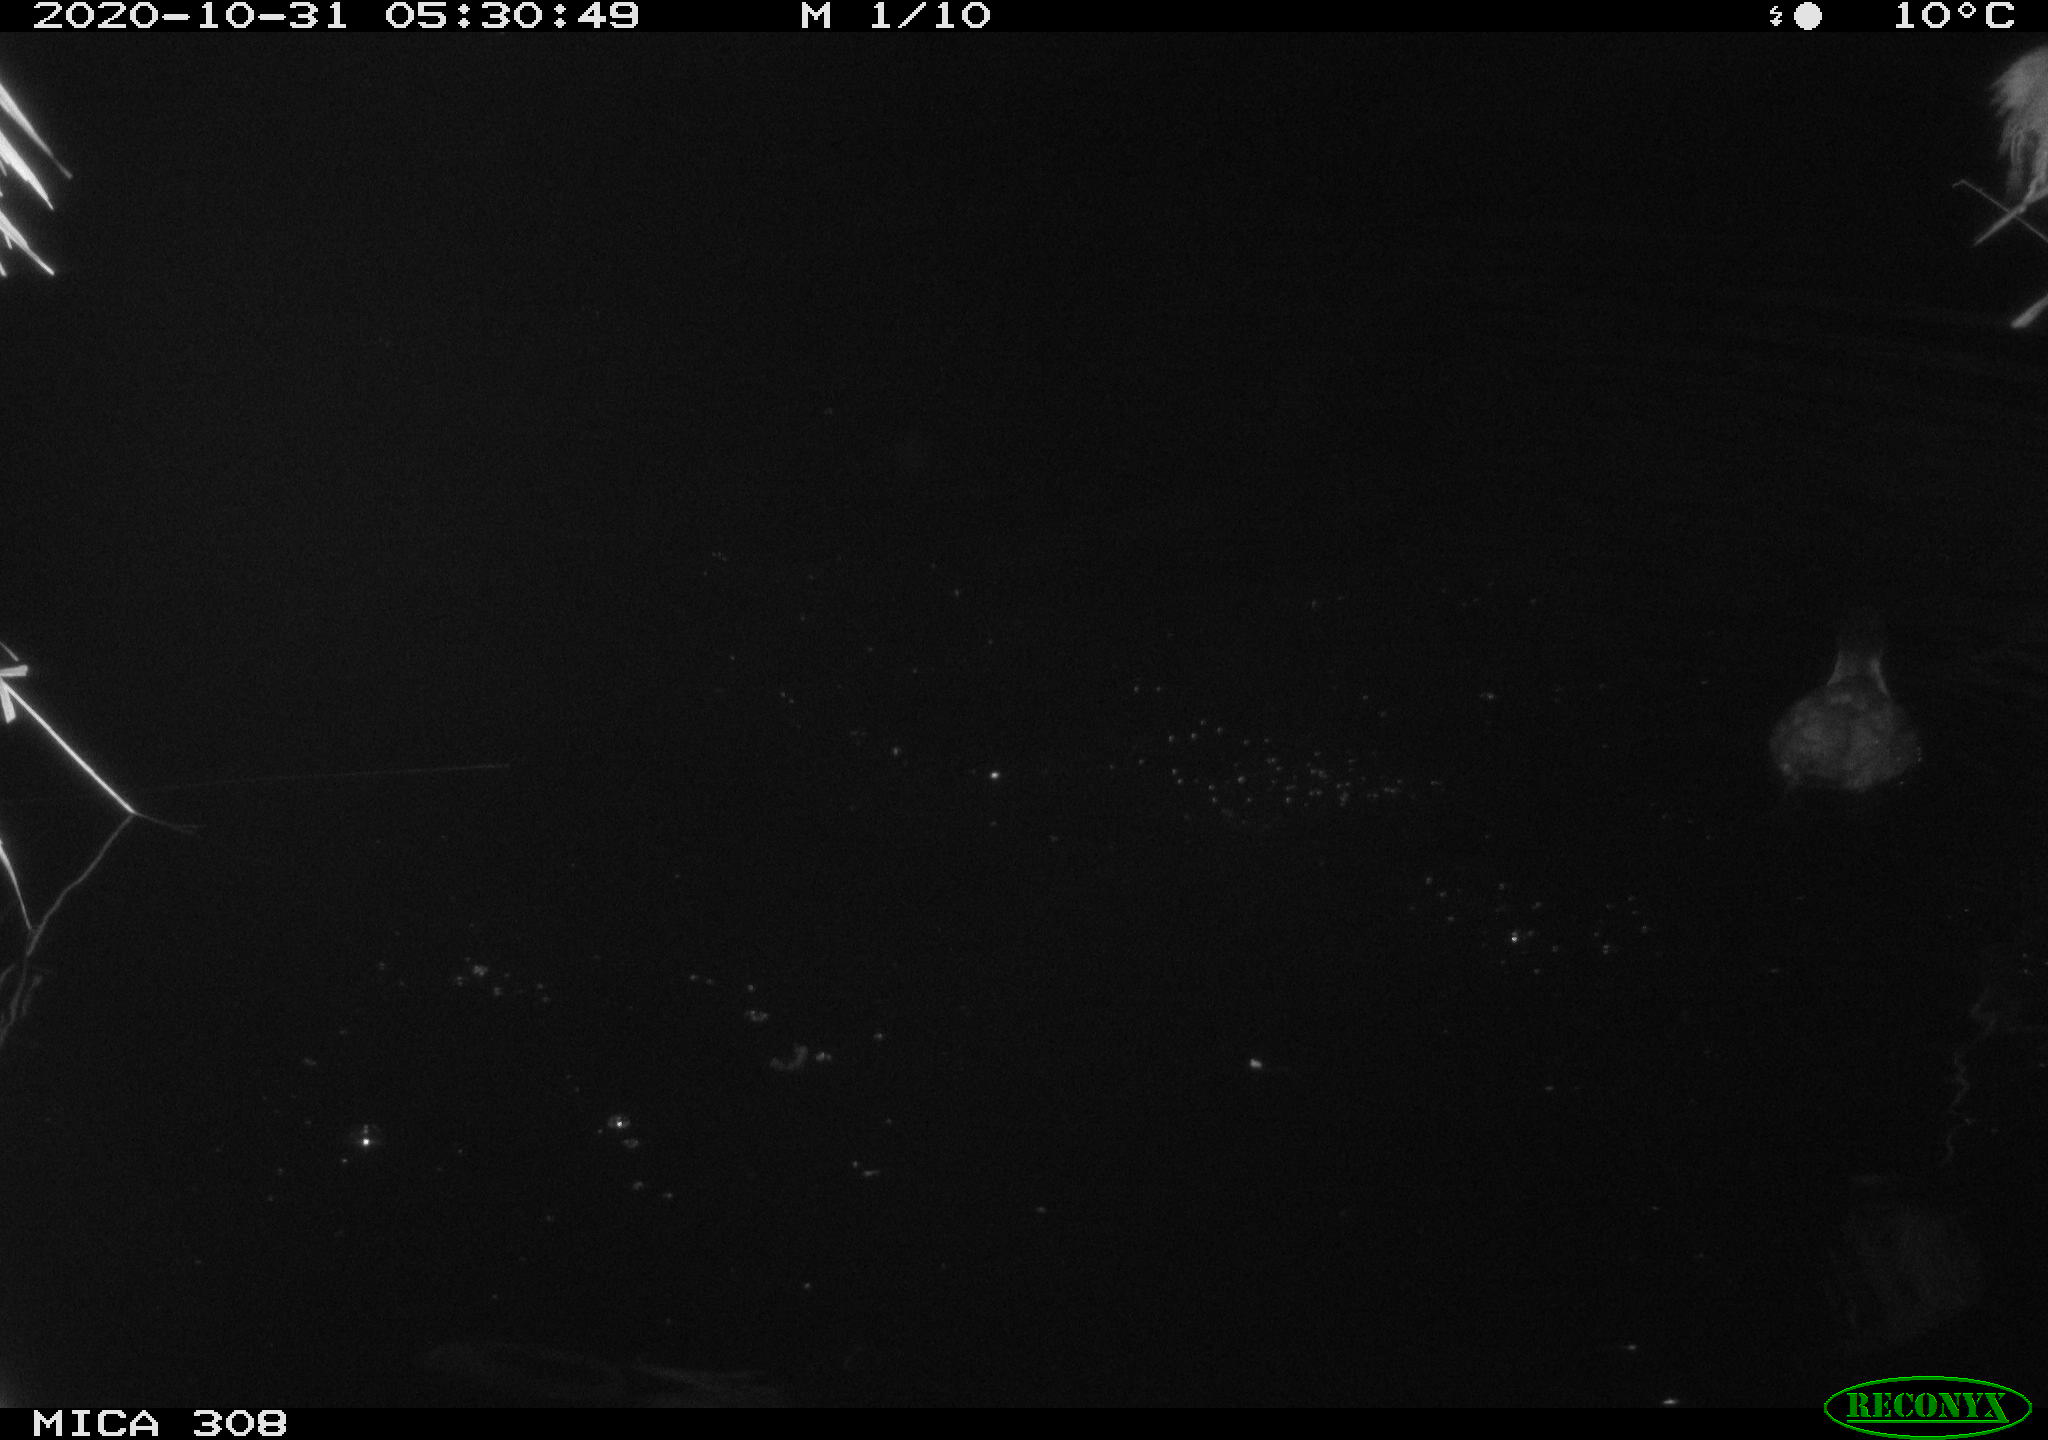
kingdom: Animalia
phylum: Chordata
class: Aves
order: Anseriformes
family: Anatidae
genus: Aythya
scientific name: Aythya fuligula
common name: Tufted duck
